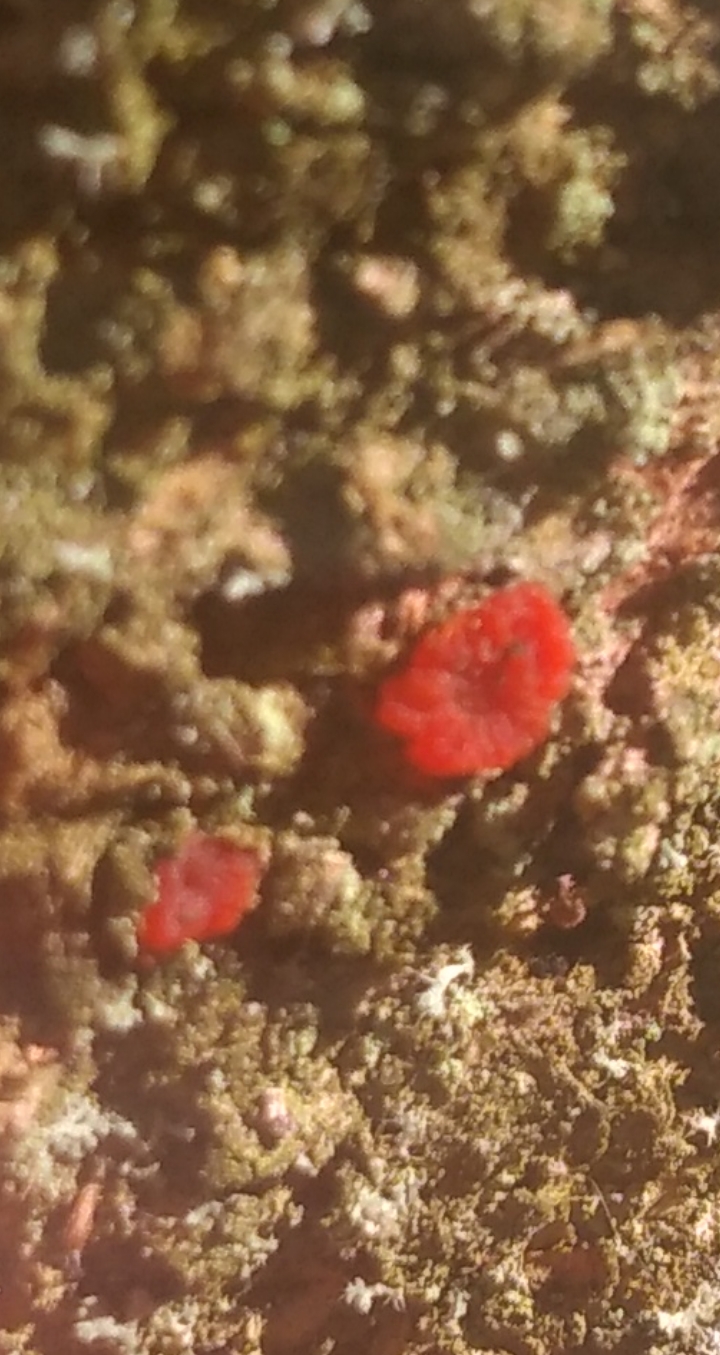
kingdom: Fungi
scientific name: Fungi
